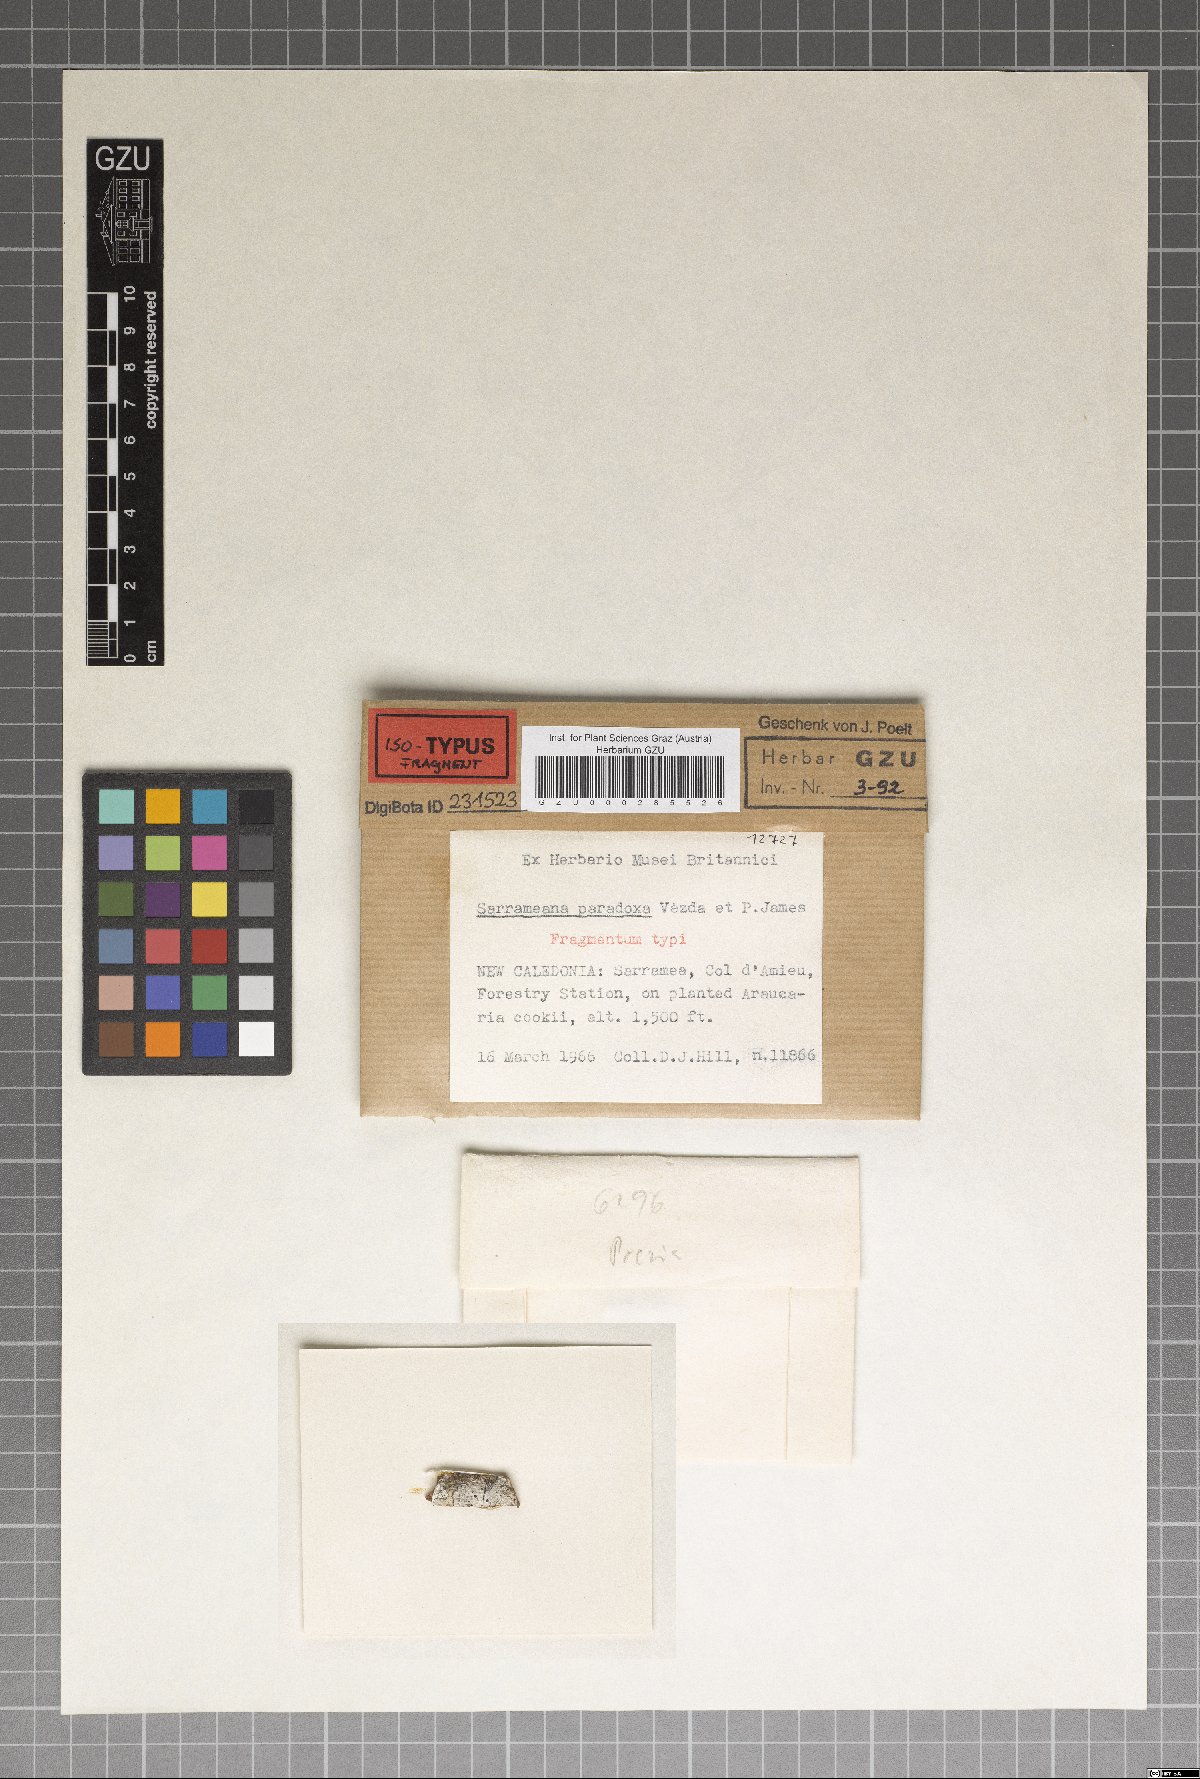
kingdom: Fungi
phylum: Ascomycota
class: Lecanoromycetes
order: Lecanorales
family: Sarrameanaceae
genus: Sarrameana
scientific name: Sarrameana paradoxa
